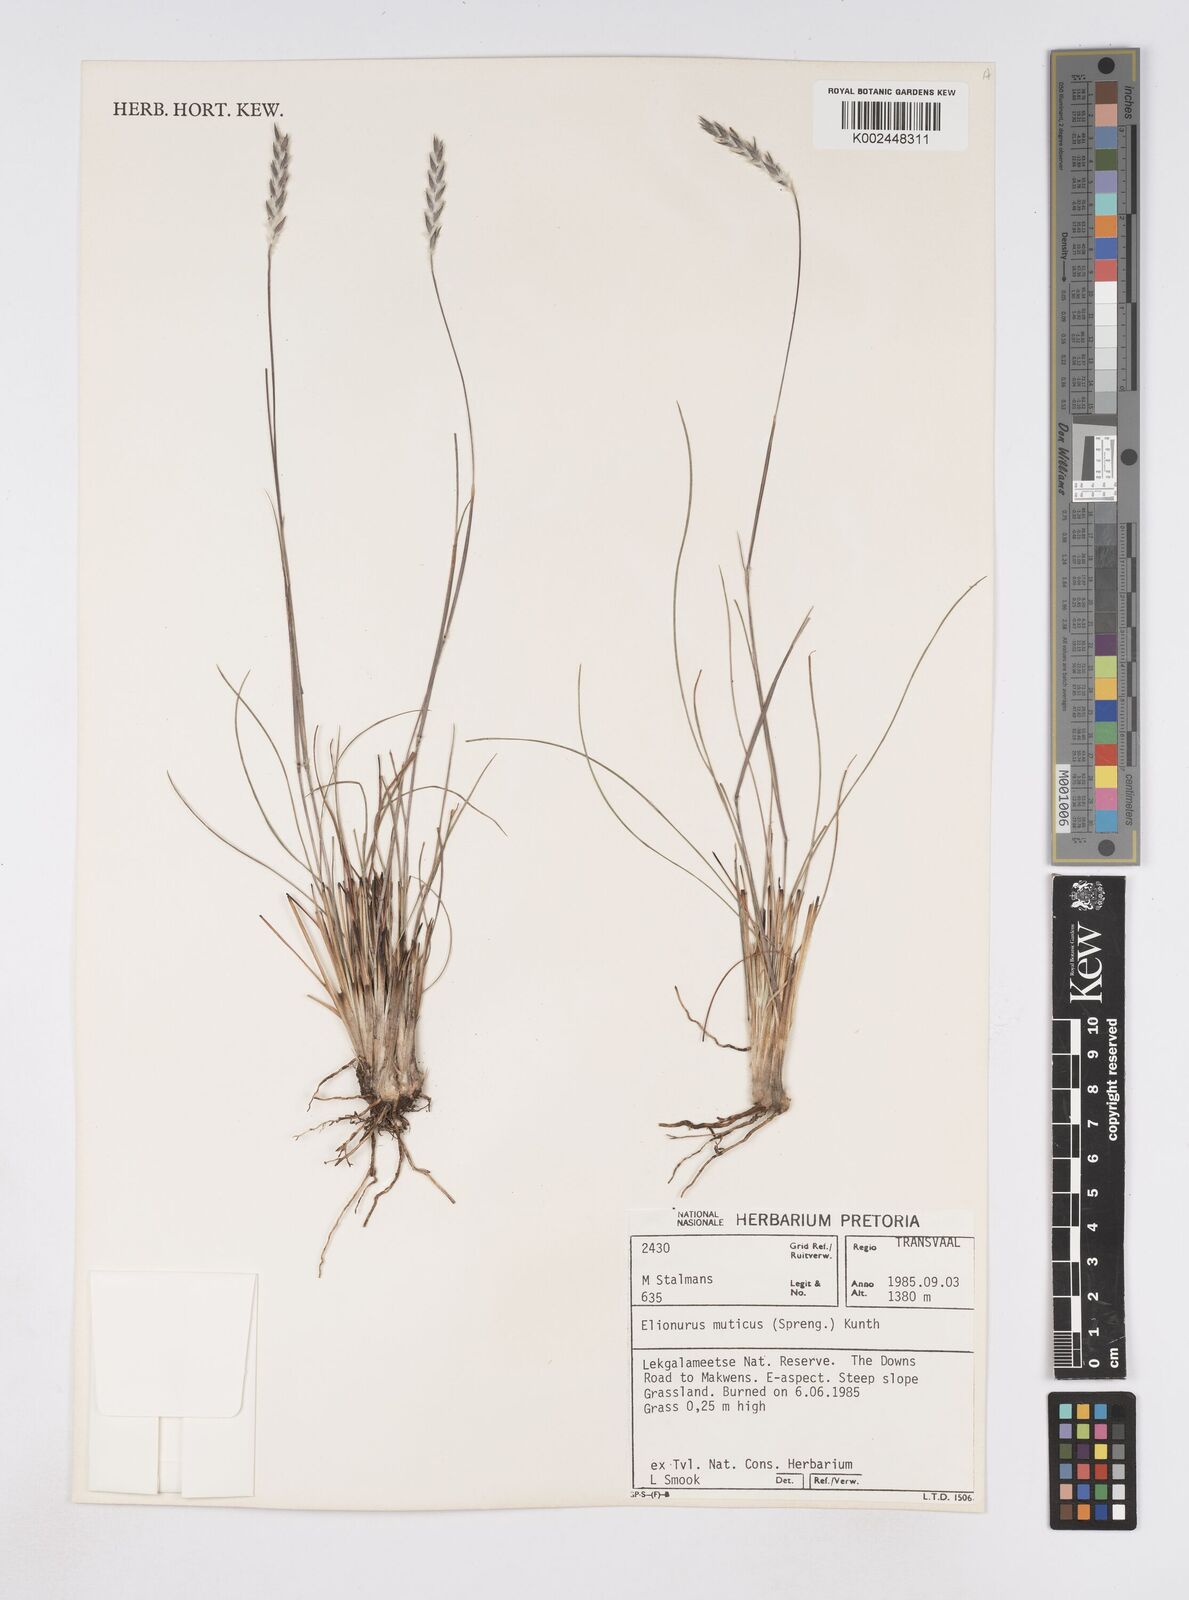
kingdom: Plantae
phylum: Tracheophyta
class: Liliopsida
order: Poales
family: Poaceae
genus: Elionurus
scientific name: Elionurus muticus
